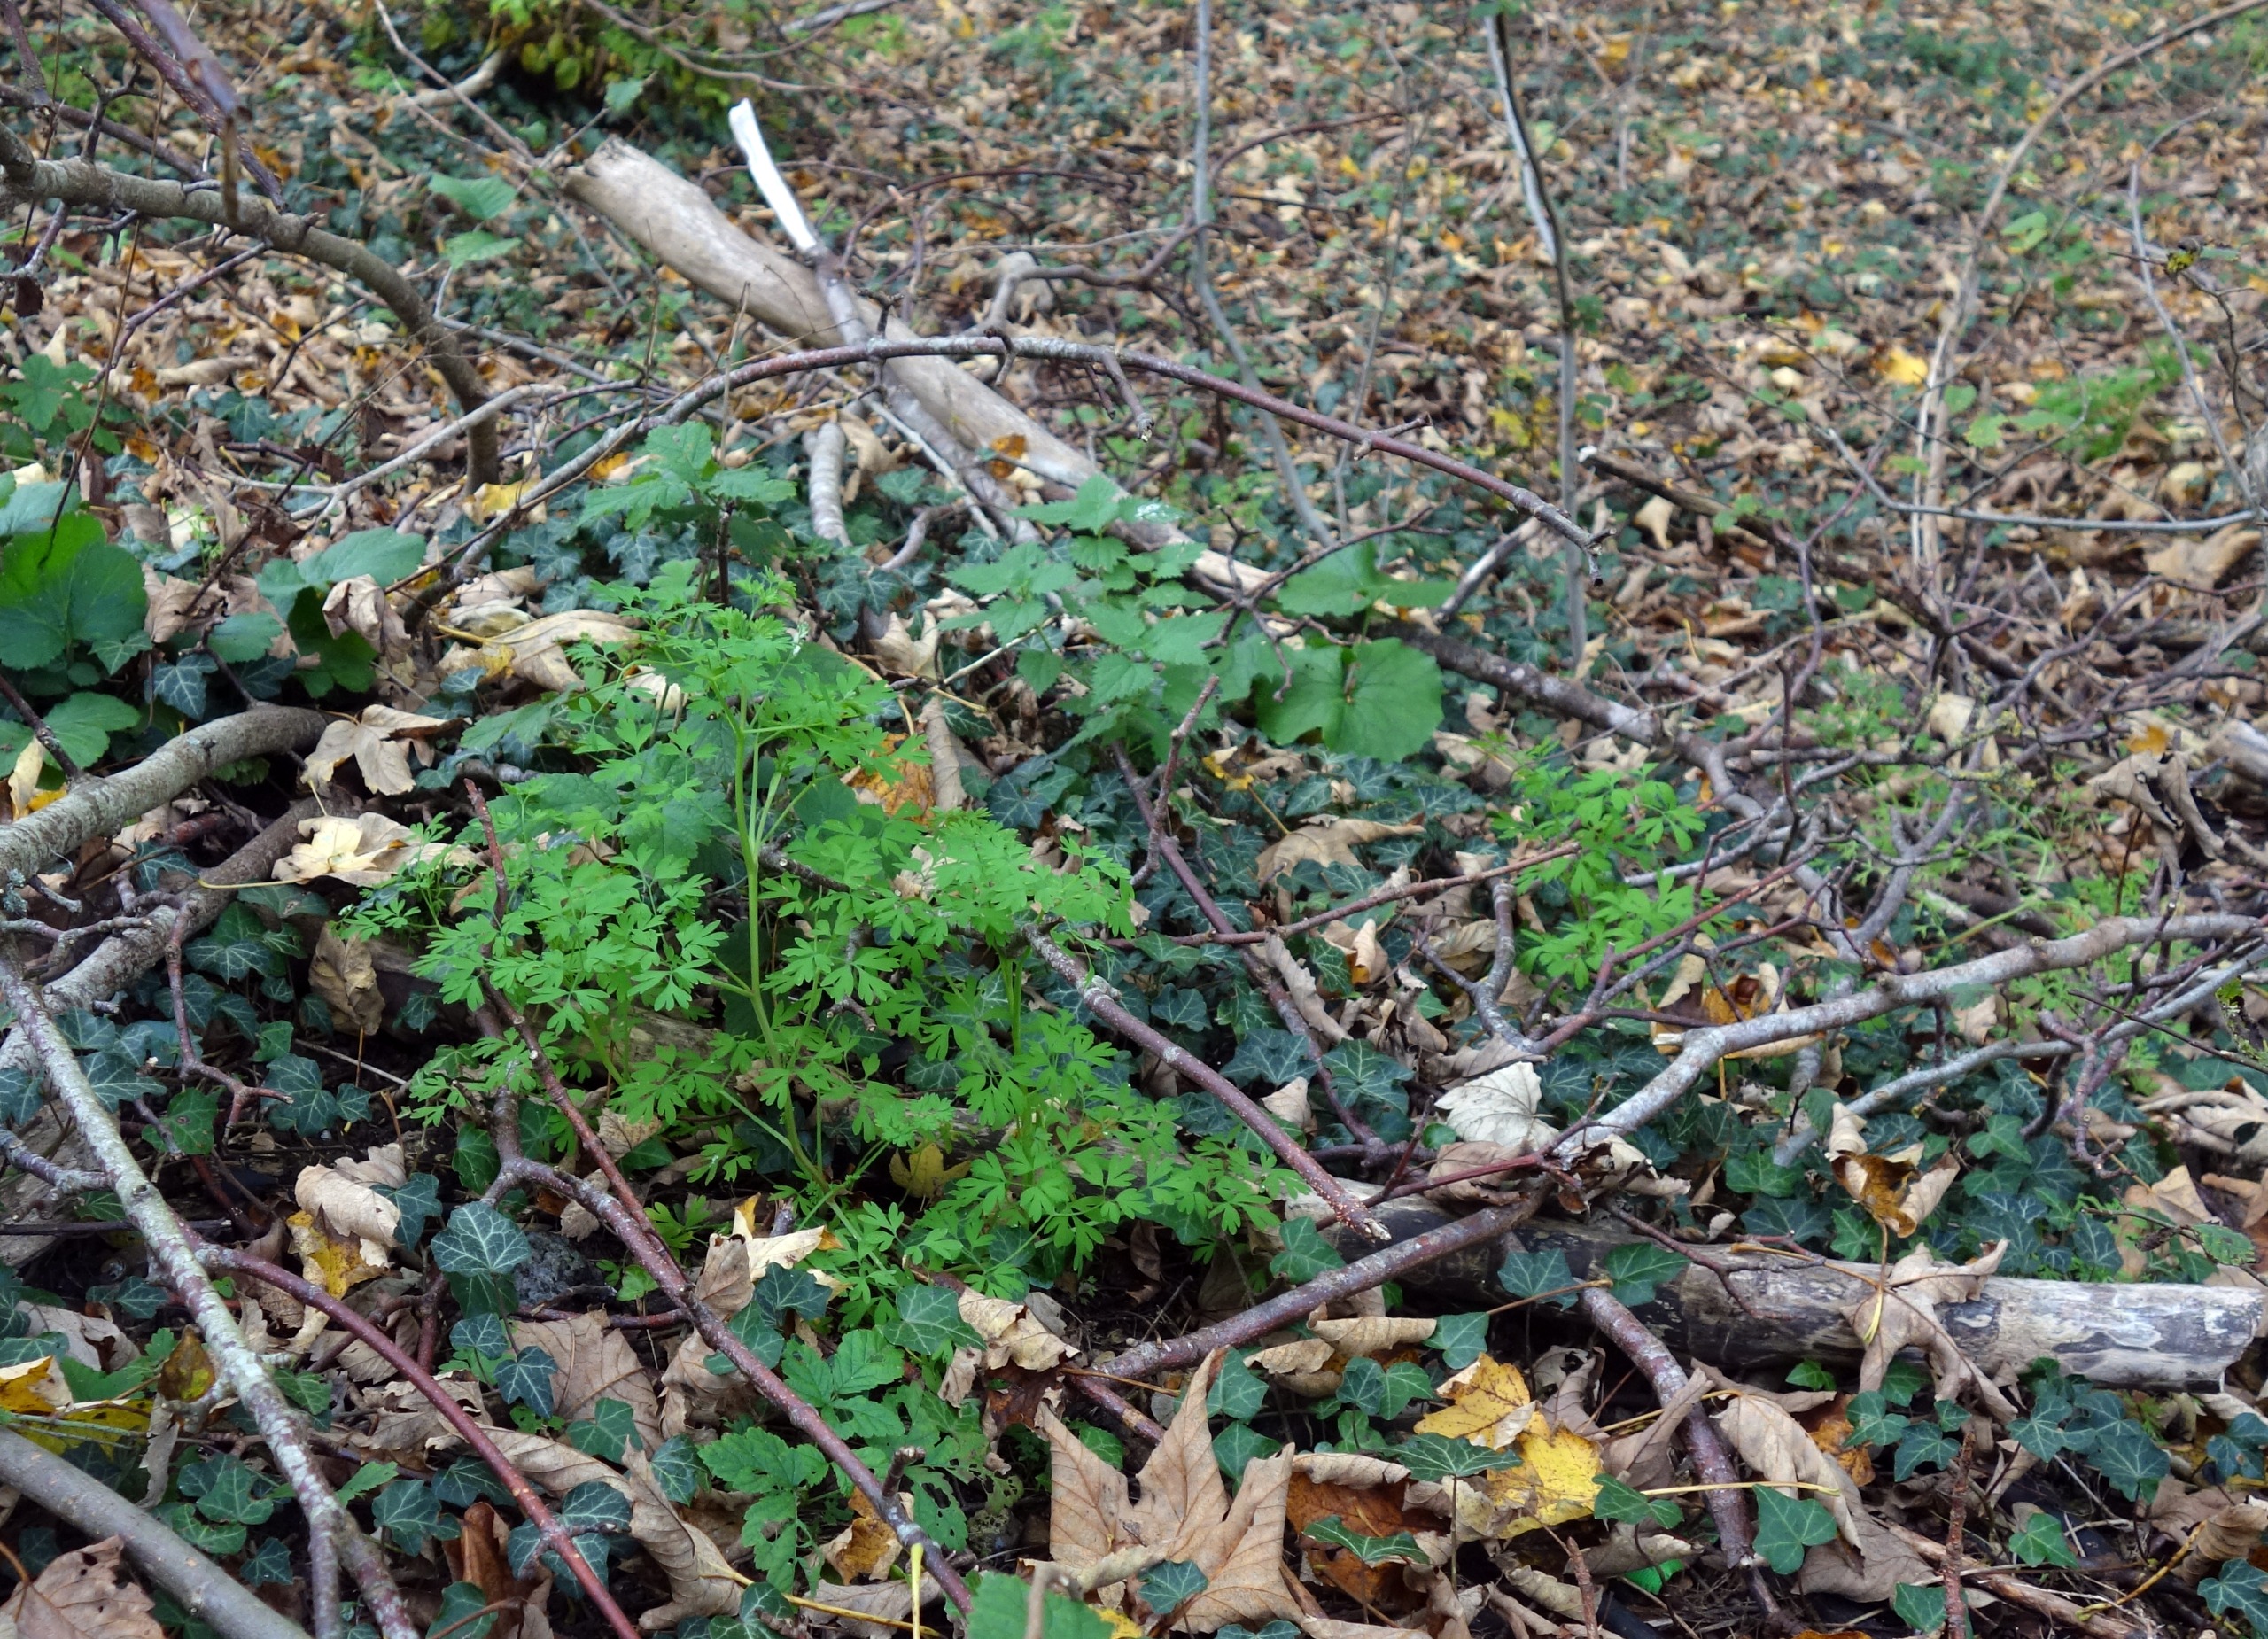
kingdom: Plantae
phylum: Tracheophyta
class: Magnoliopsida
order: Ranunculales
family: Papaveraceae
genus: Fumaria
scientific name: Fumaria muralis
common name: Mur-jordrøg
